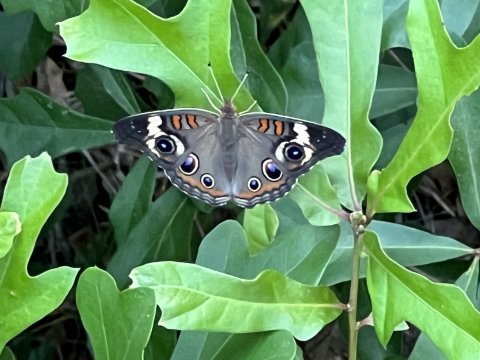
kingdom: Animalia
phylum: Arthropoda
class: Insecta
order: Lepidoptera
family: Nymphalidae
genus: Junonia
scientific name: Junonia coenia
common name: Common Buckeye
